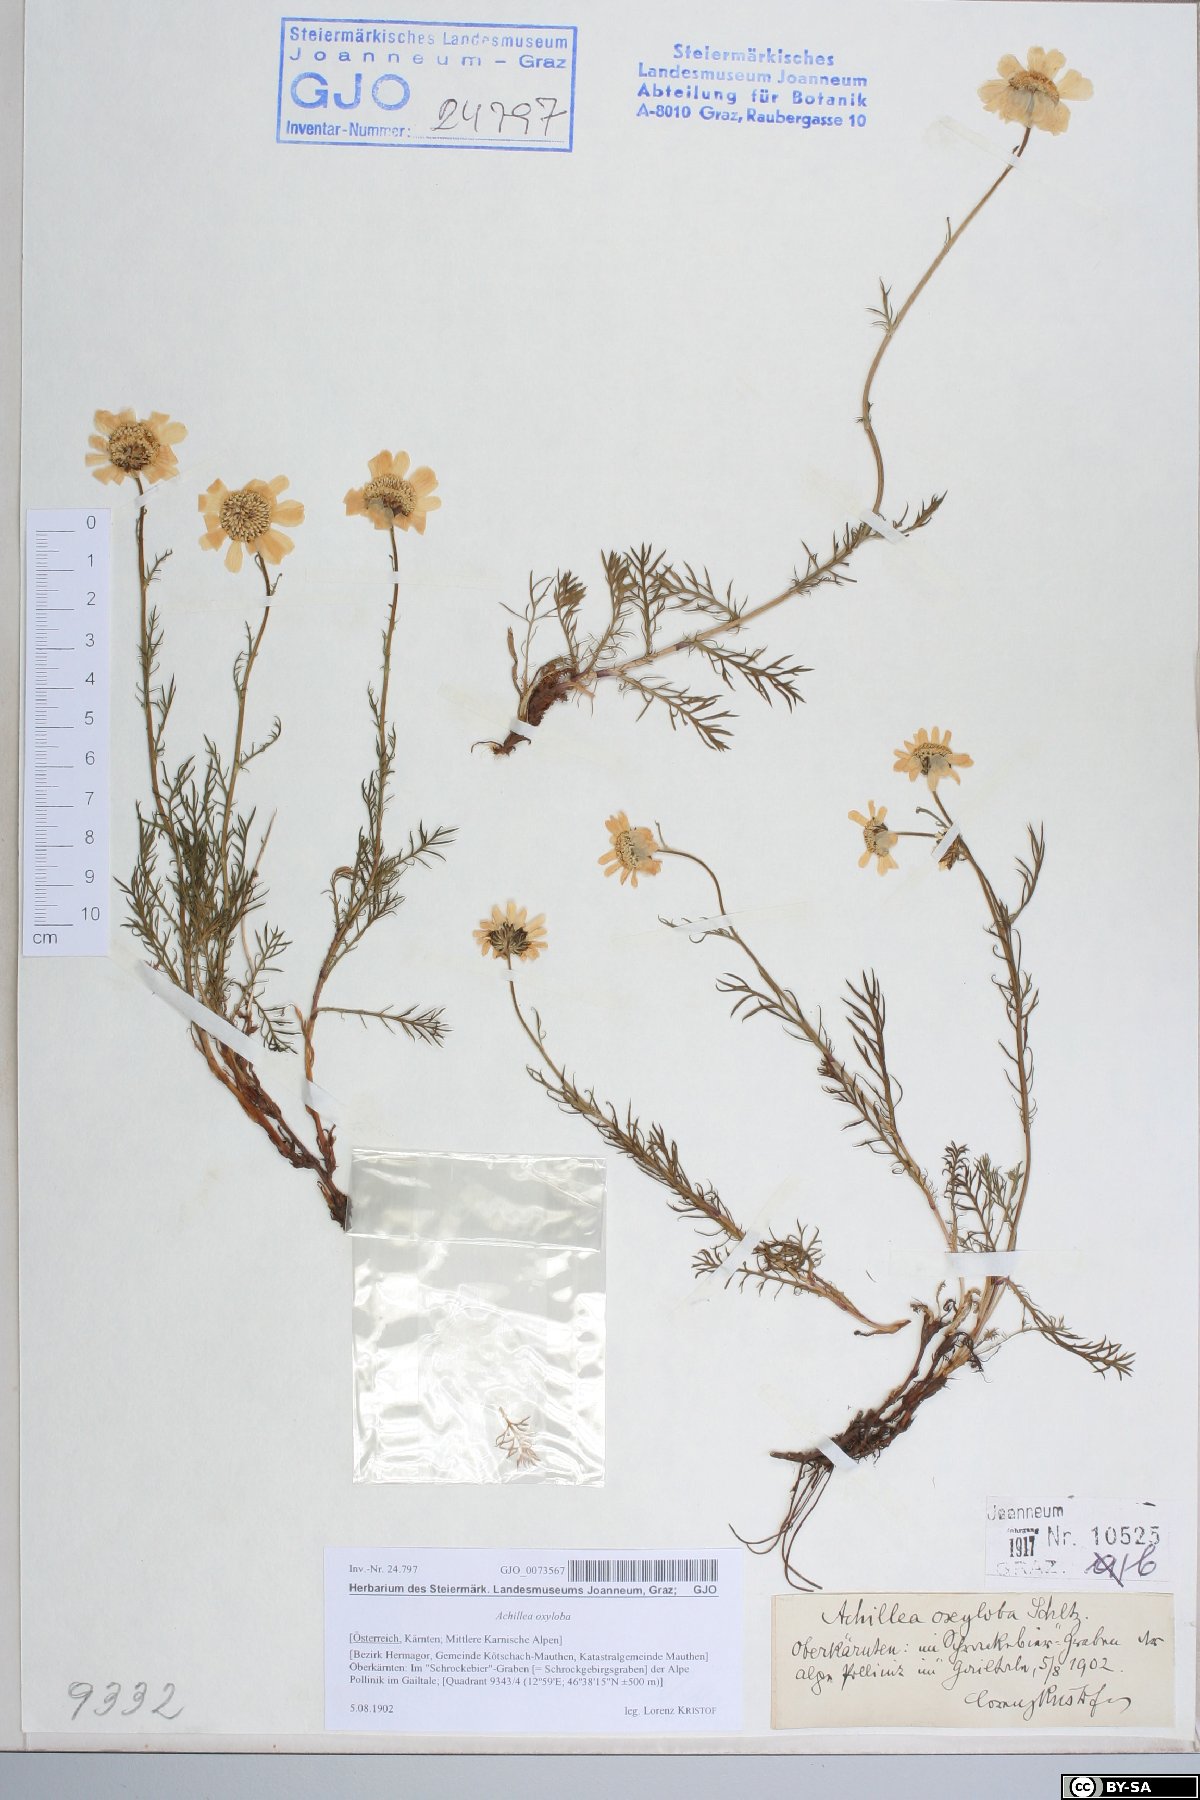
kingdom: Plantae
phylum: Tracheophyta
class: Magnoliopsida
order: Asterales
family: Asteraceae
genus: Achillea
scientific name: Achillea oxyloba
